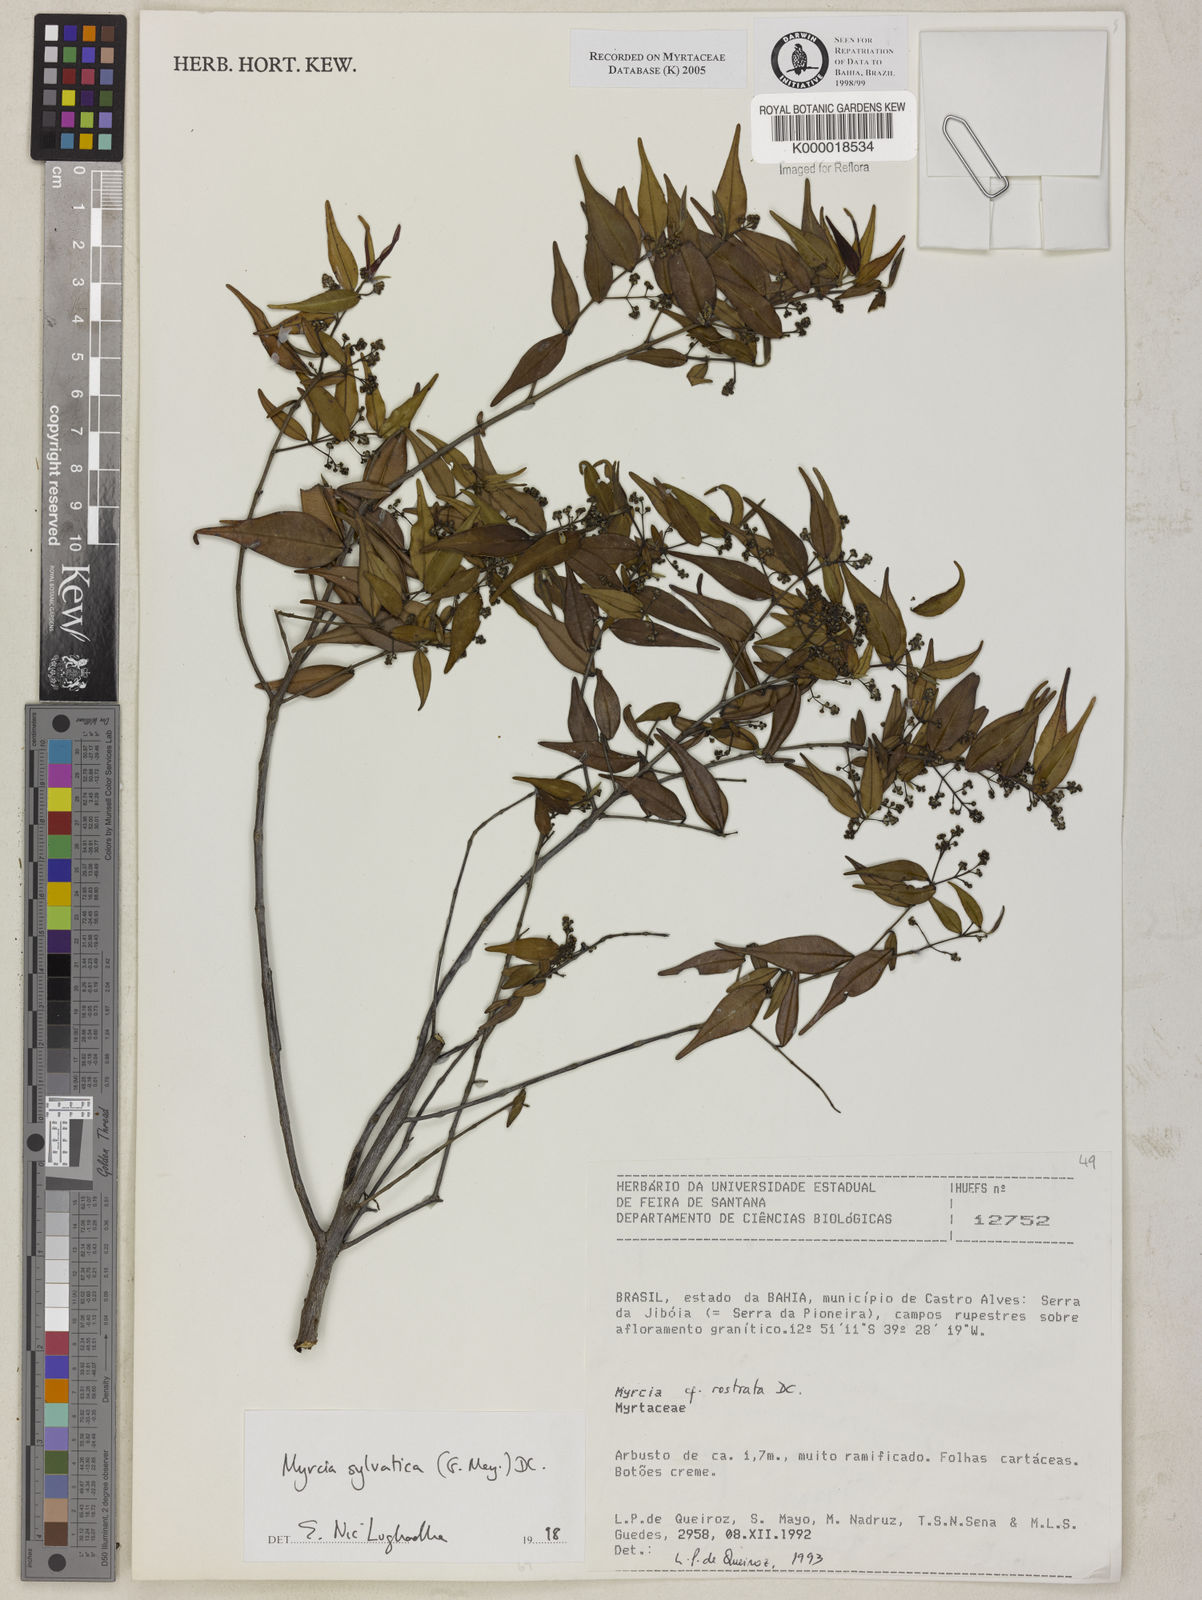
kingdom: Plantae
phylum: Tracheophyta
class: Magnoliopsida
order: Myrtales
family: Myrtaceae
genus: Myrcia
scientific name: Myrcia sylvatica
